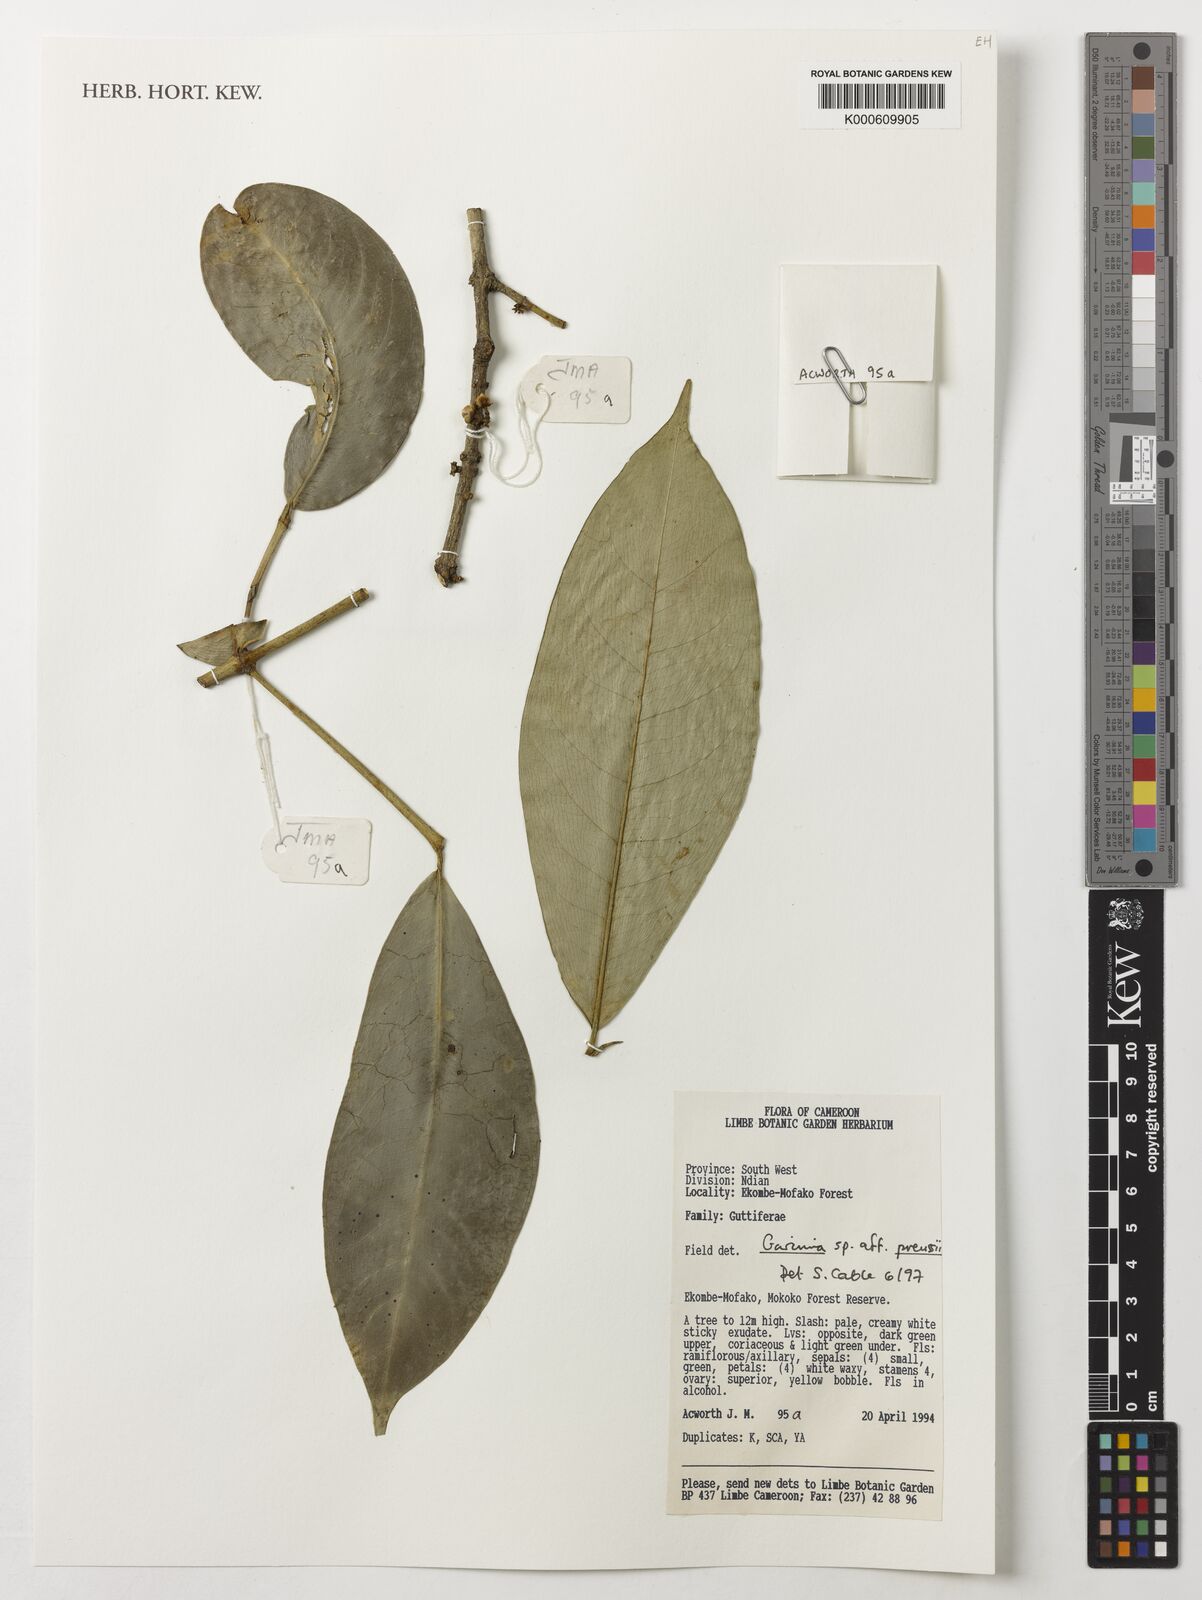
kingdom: Plantae
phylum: Tracheophyta
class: Magnoliopsida
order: Malpighiales
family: Clusiaceae
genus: Garcinia
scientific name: Garcinia preussii
